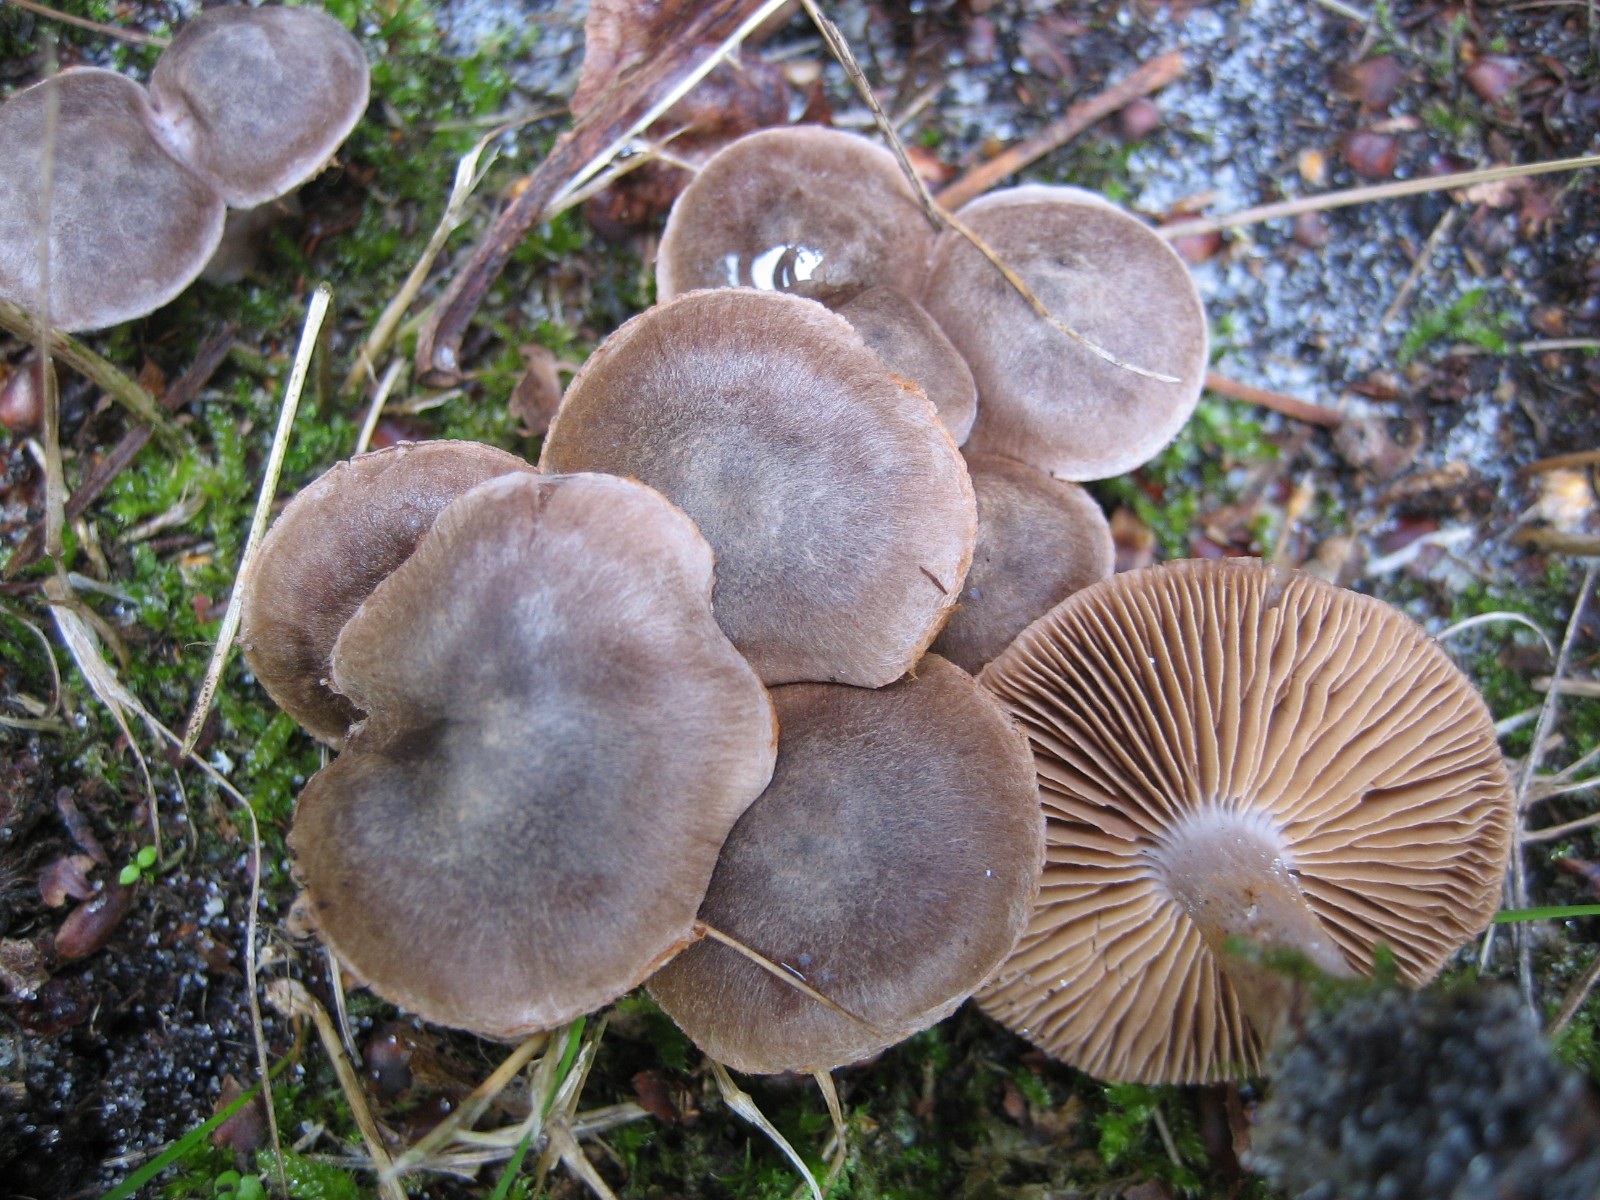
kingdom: Fungi
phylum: Basidiomycota
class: Agaricomycetes
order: Agaricales
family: Cortinariaceae
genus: Cortinarius
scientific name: Cortinarius
